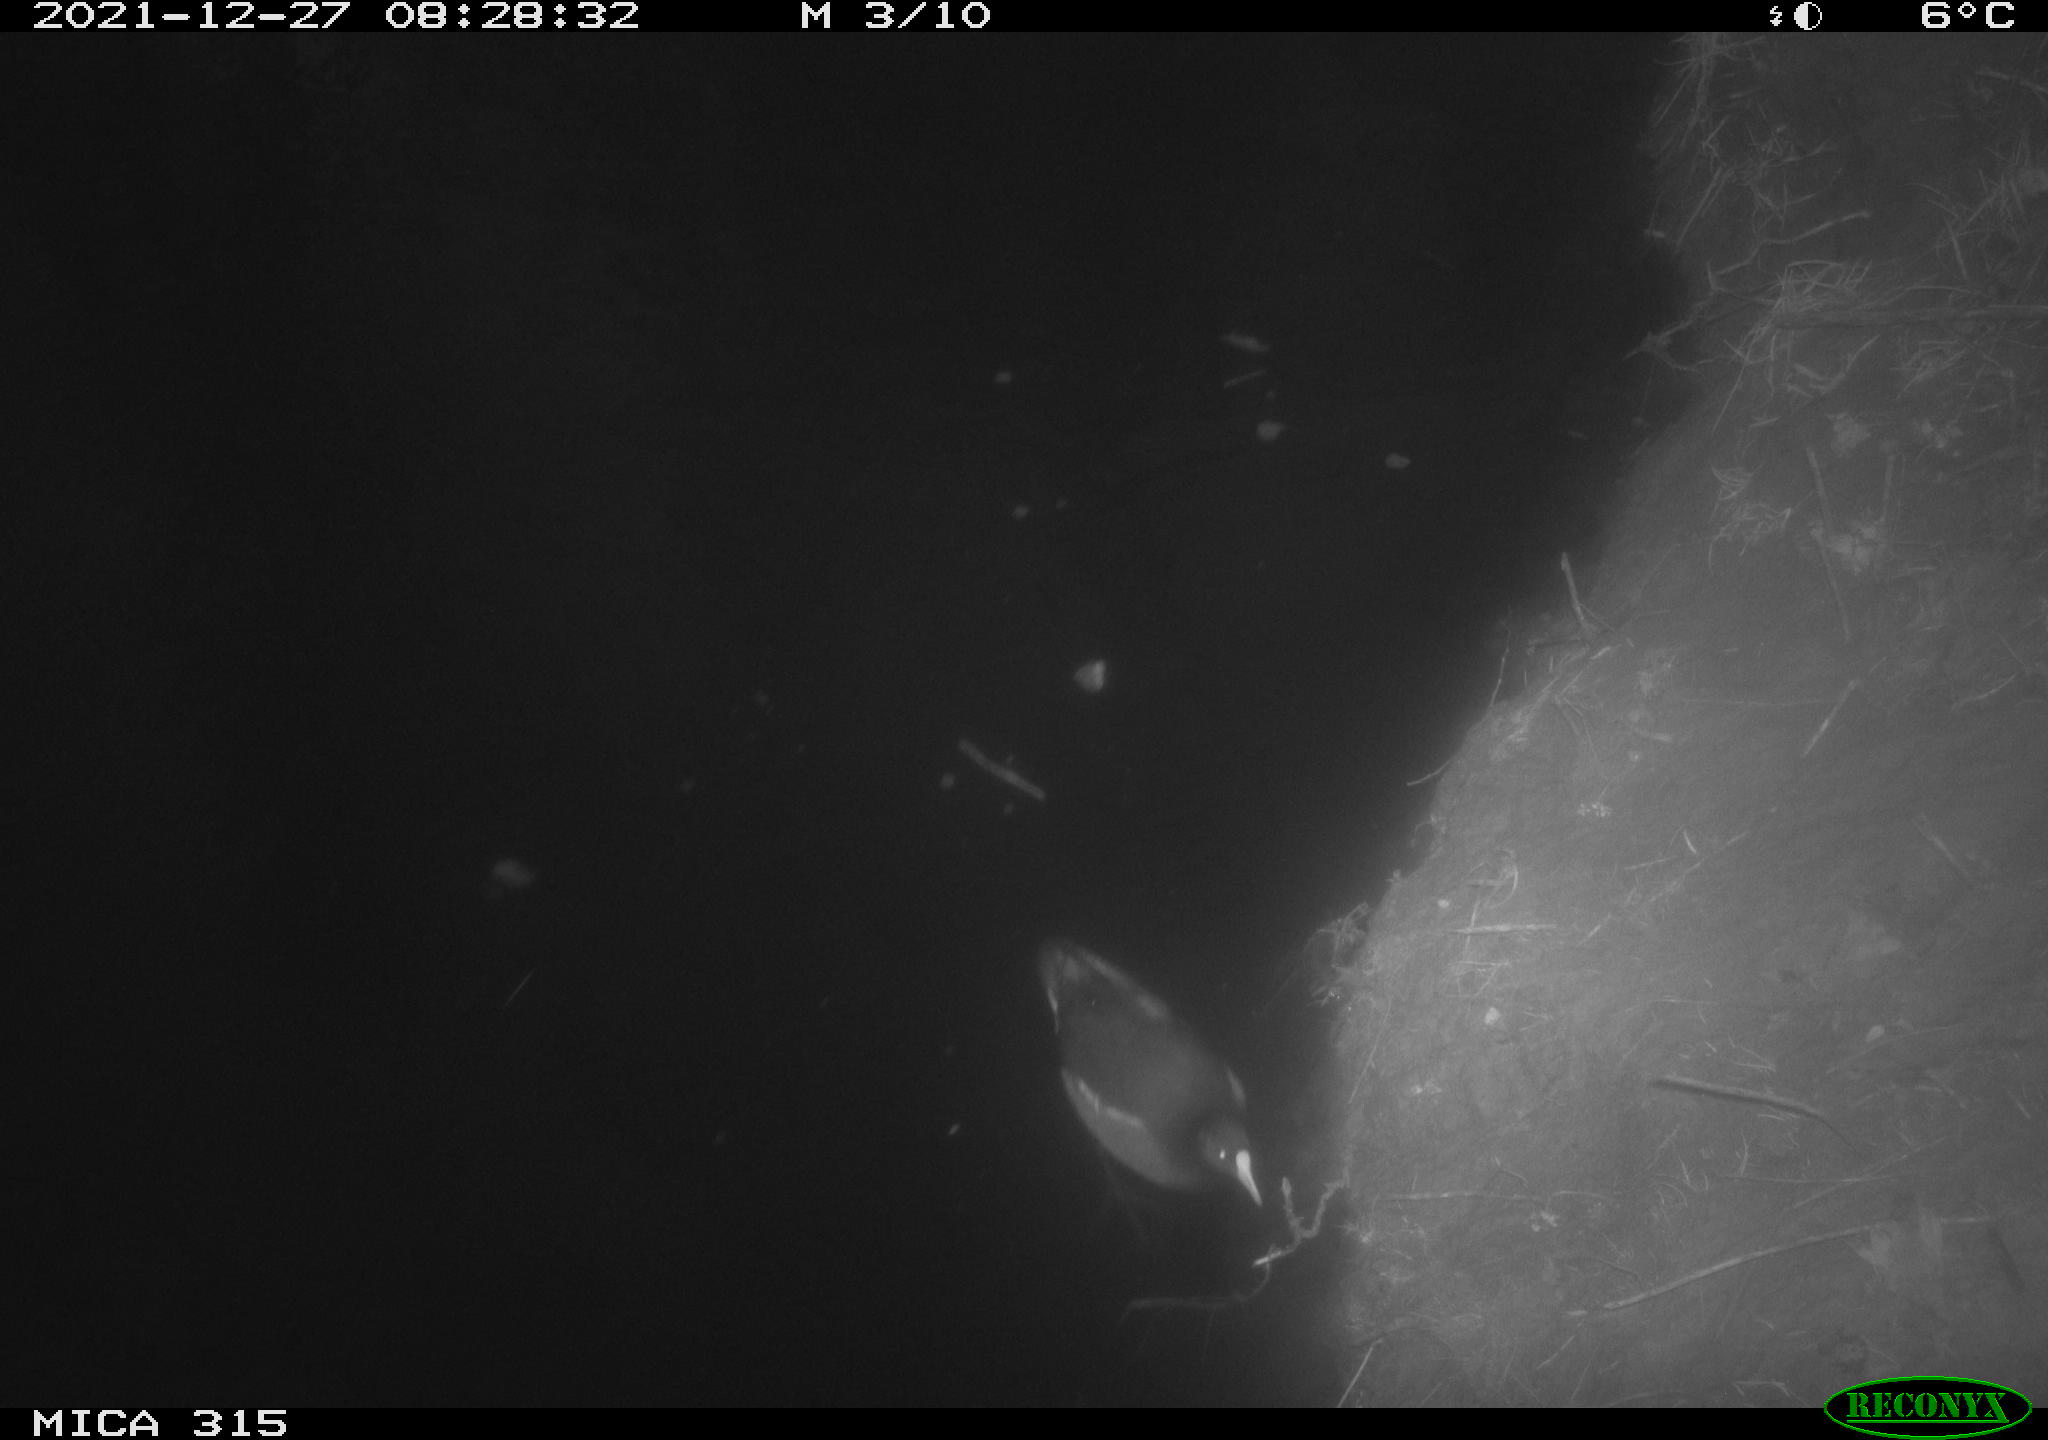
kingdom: Animalia
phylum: Chordata
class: Aves
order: Gruiformes
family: Rallidae
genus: Gallinula
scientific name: Gallinula chloropus
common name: Common moorhen
